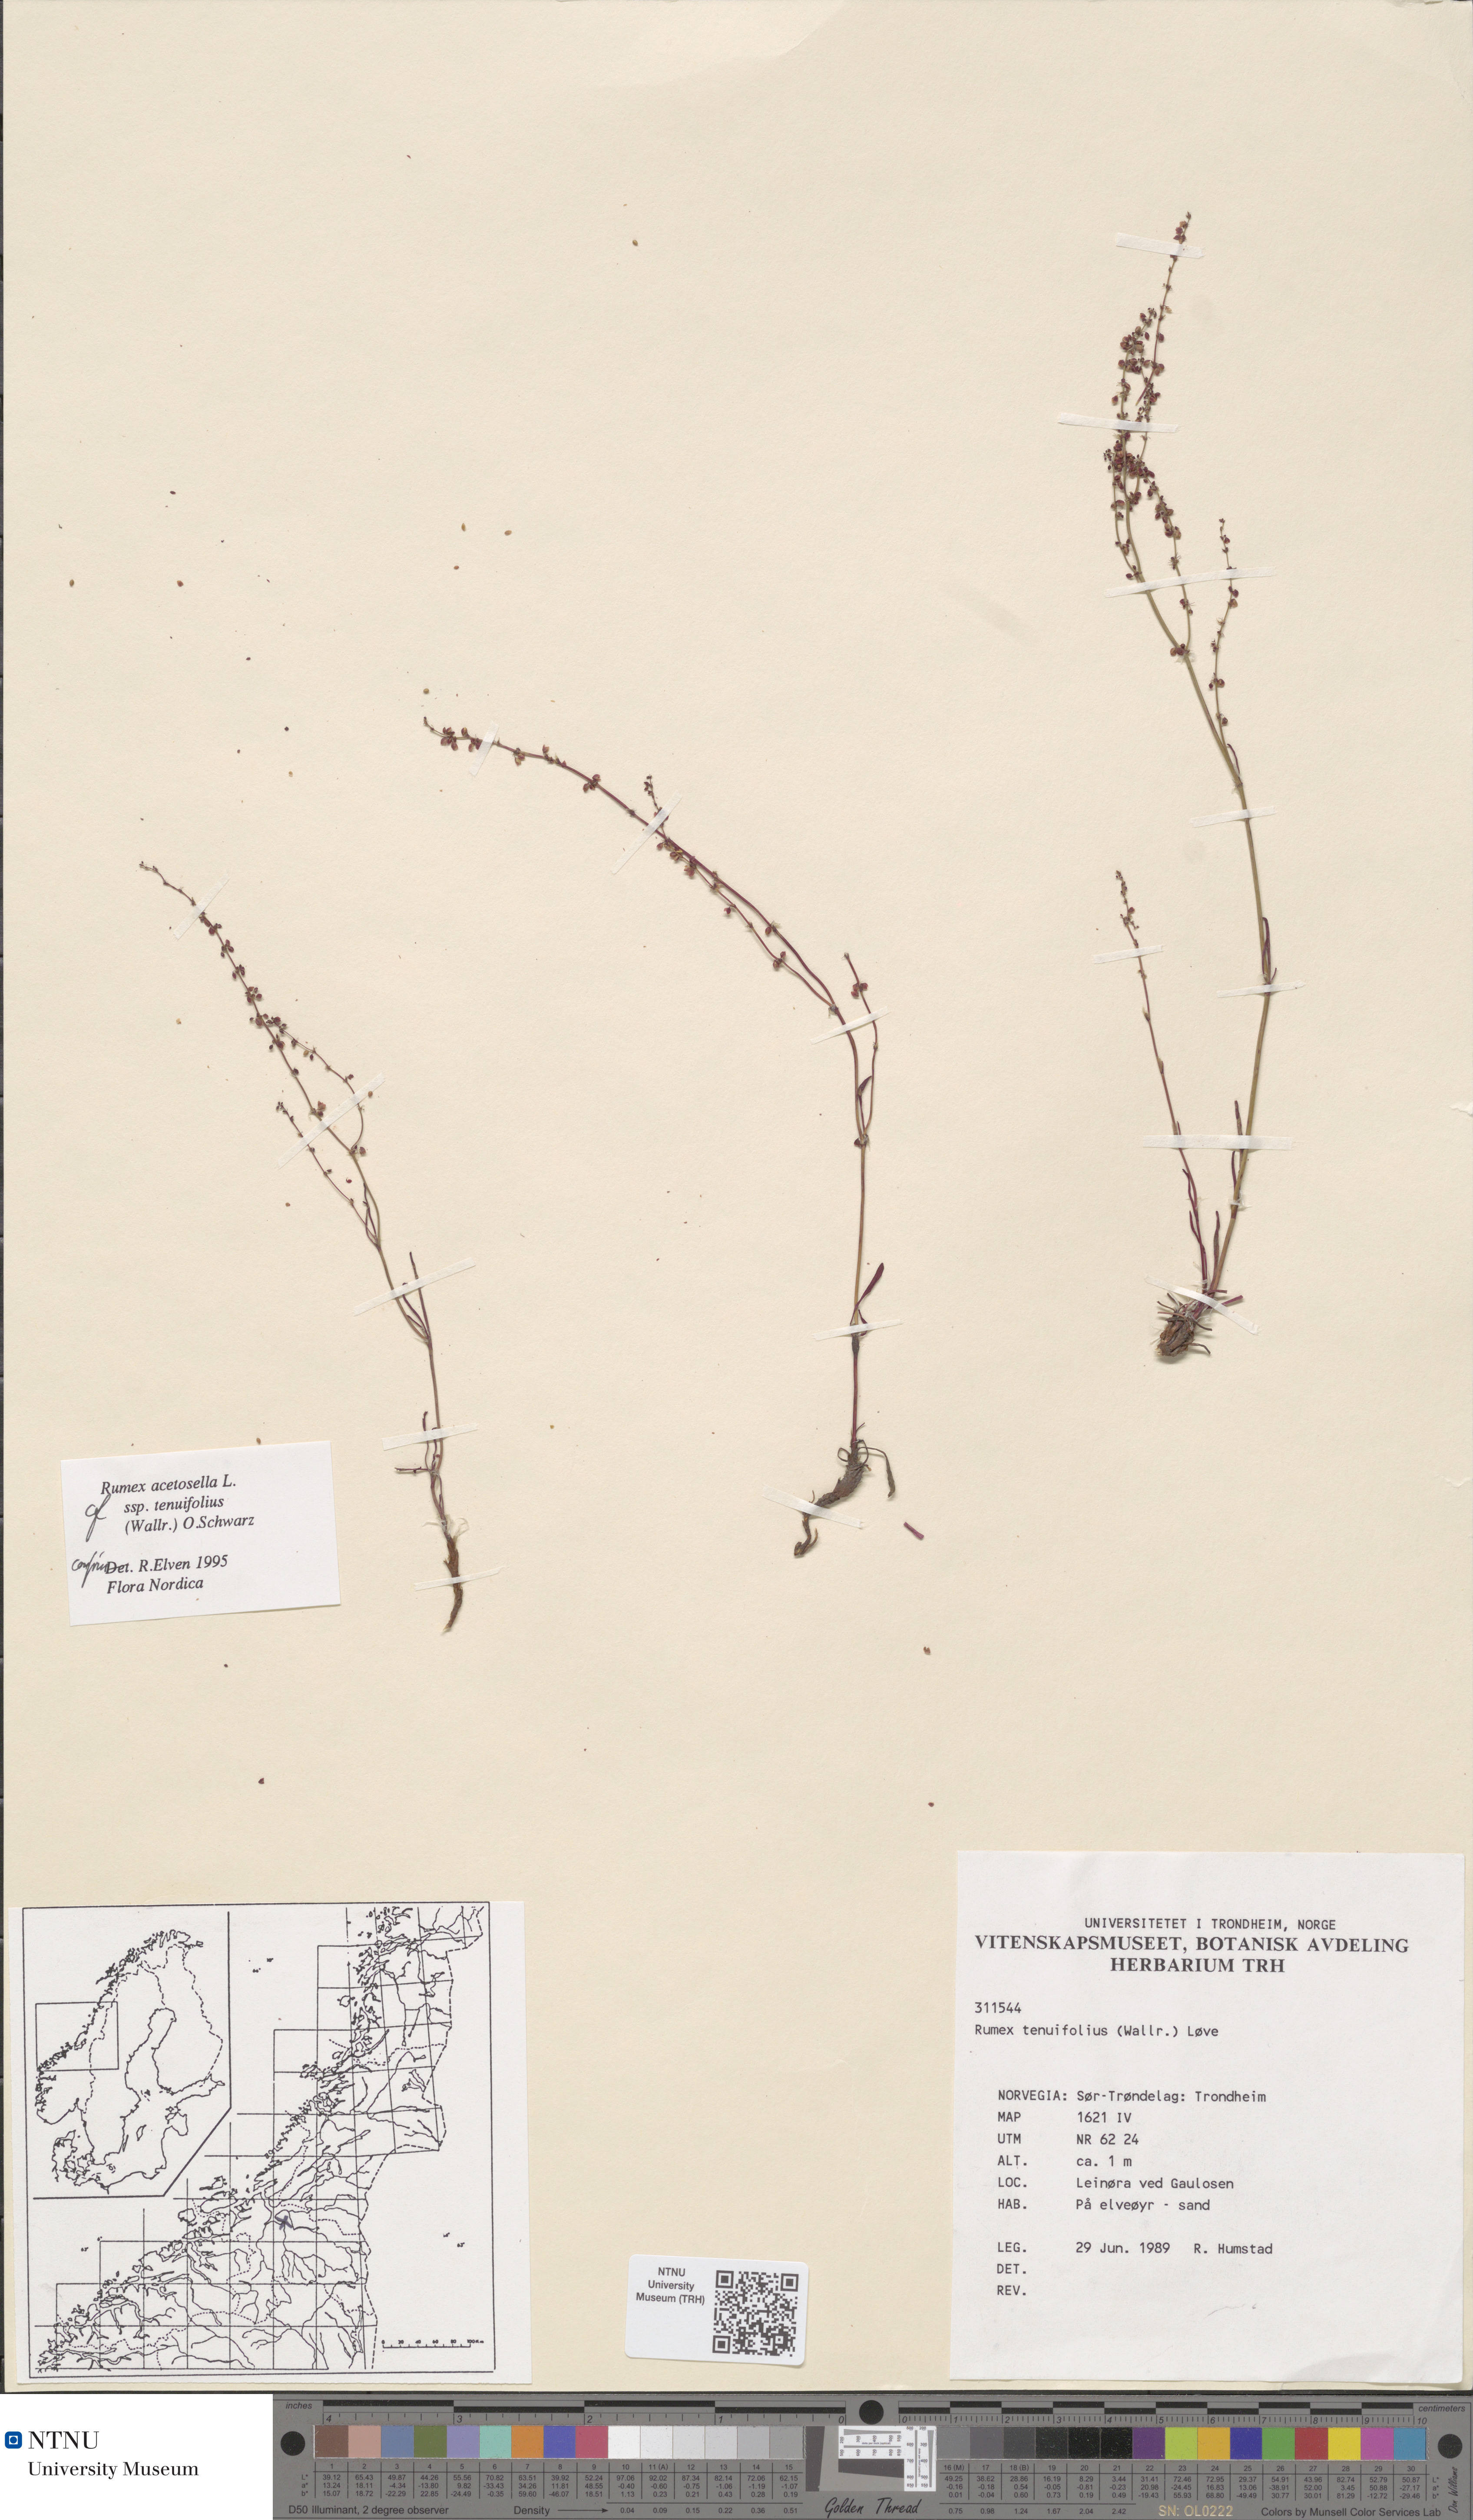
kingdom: Plantae
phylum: Tracheophyta
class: Magnoliopsida
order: Caryophyllales
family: Polygonaceae
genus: Rumex
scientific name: Rumex acetosella
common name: Common sheep sorrel
